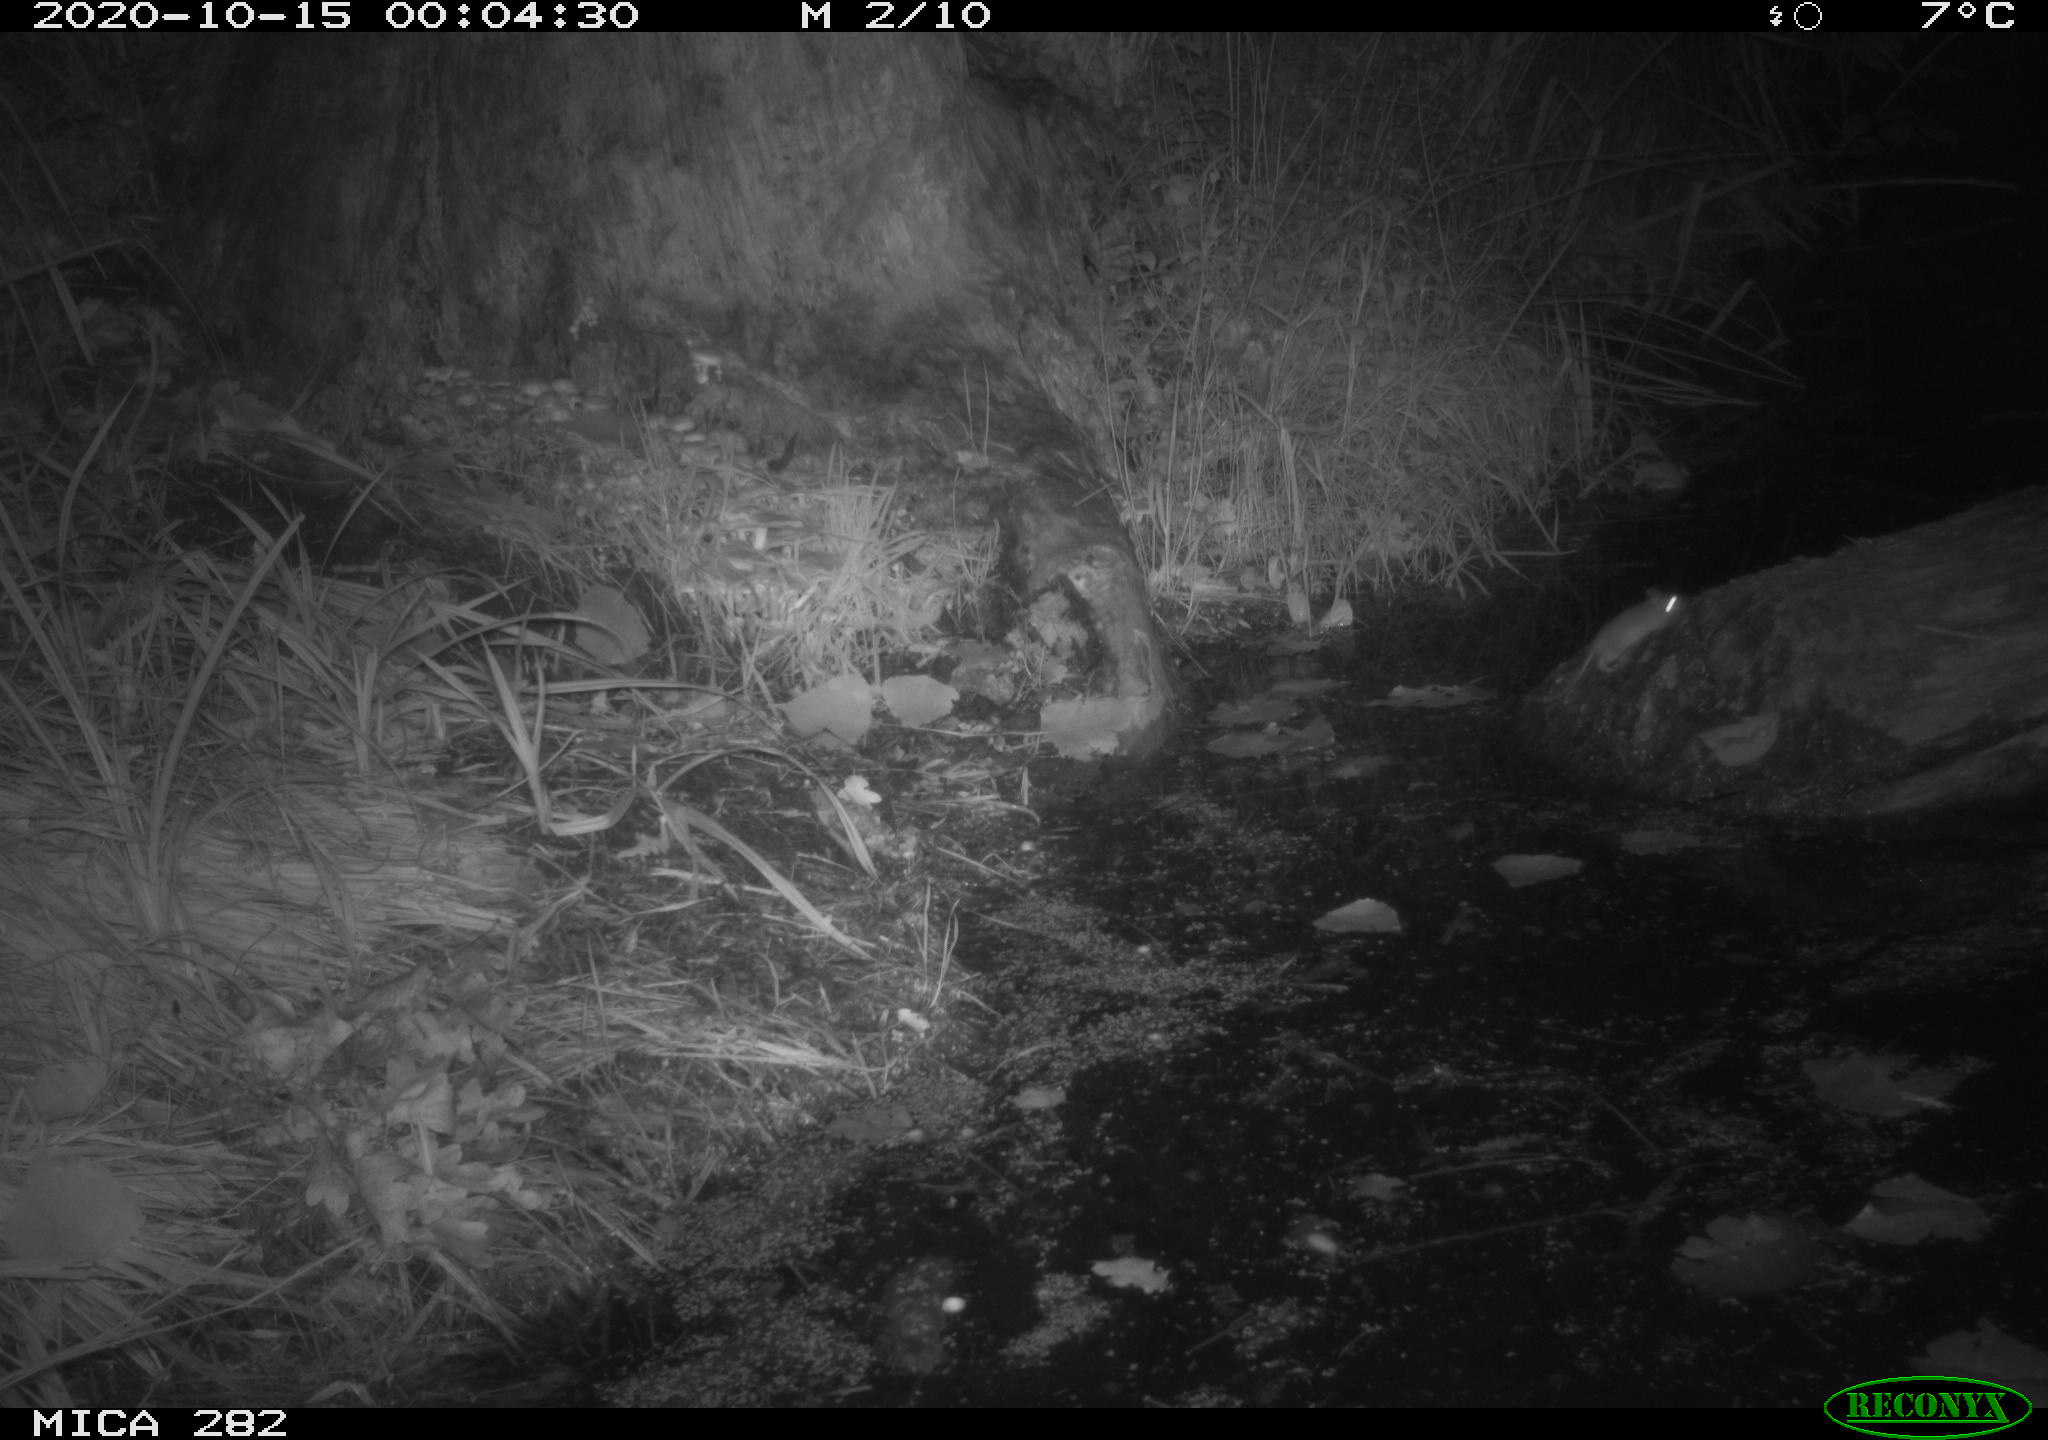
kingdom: Animalia
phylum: Chordata
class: Mammalia
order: Soricomorpha
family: Soricidae
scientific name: Soricidae
